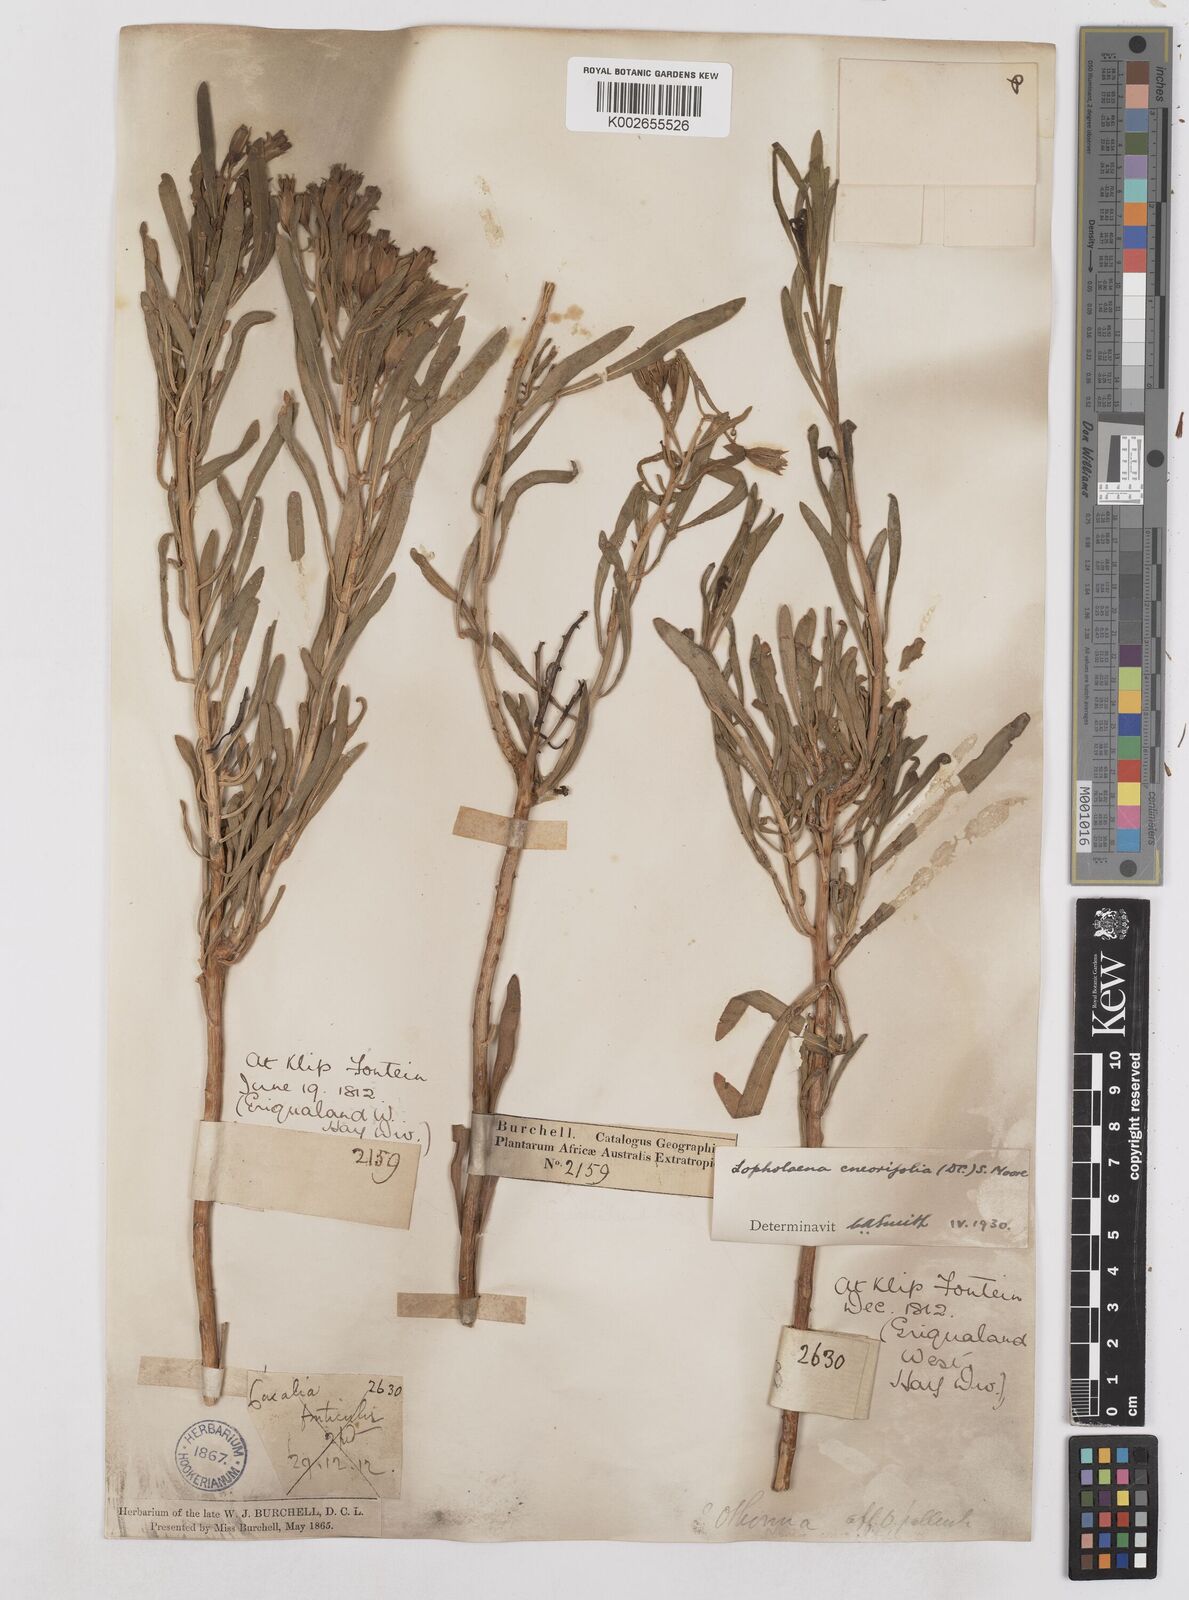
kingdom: Plantae
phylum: Tracheophyta
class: Magnoliopsida
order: Asterales
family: Asteraceae
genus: Lopholaena
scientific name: Lopholaena cneorifolia
